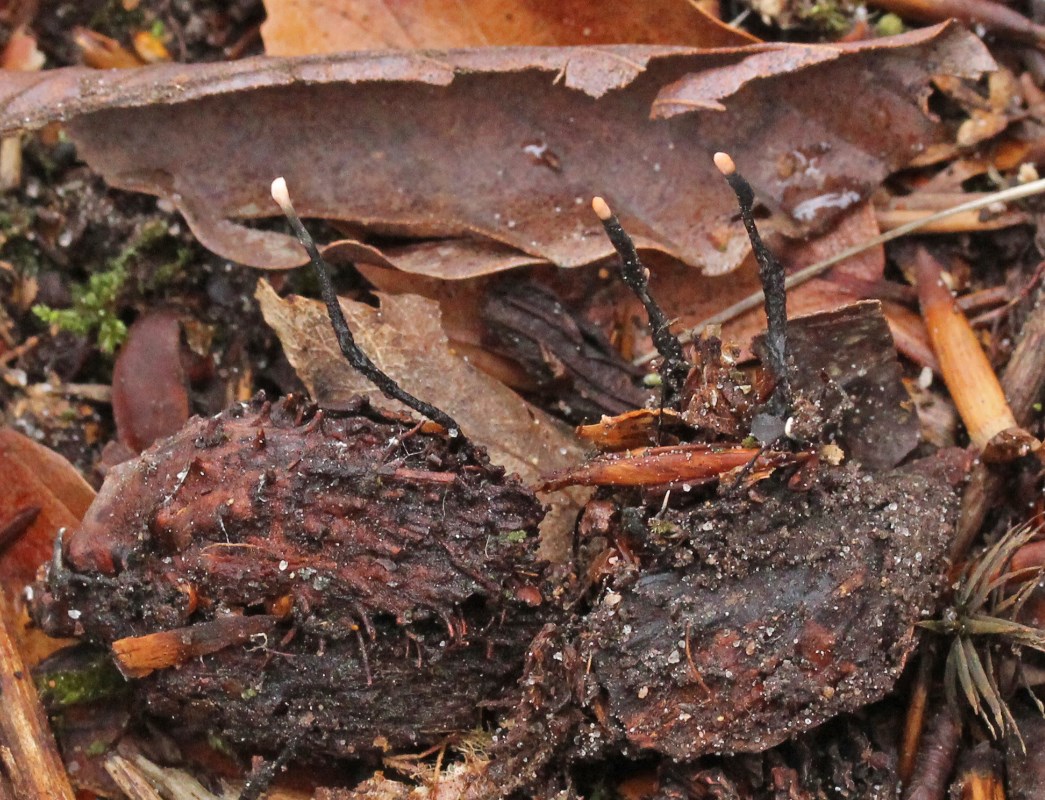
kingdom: Fungi
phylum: Ascomycota
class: Sordariomycetes
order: Xylariales
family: Xylariaceae
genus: Xylaria
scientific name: Xylaria carpophila
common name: bogskål-stødsvamp
